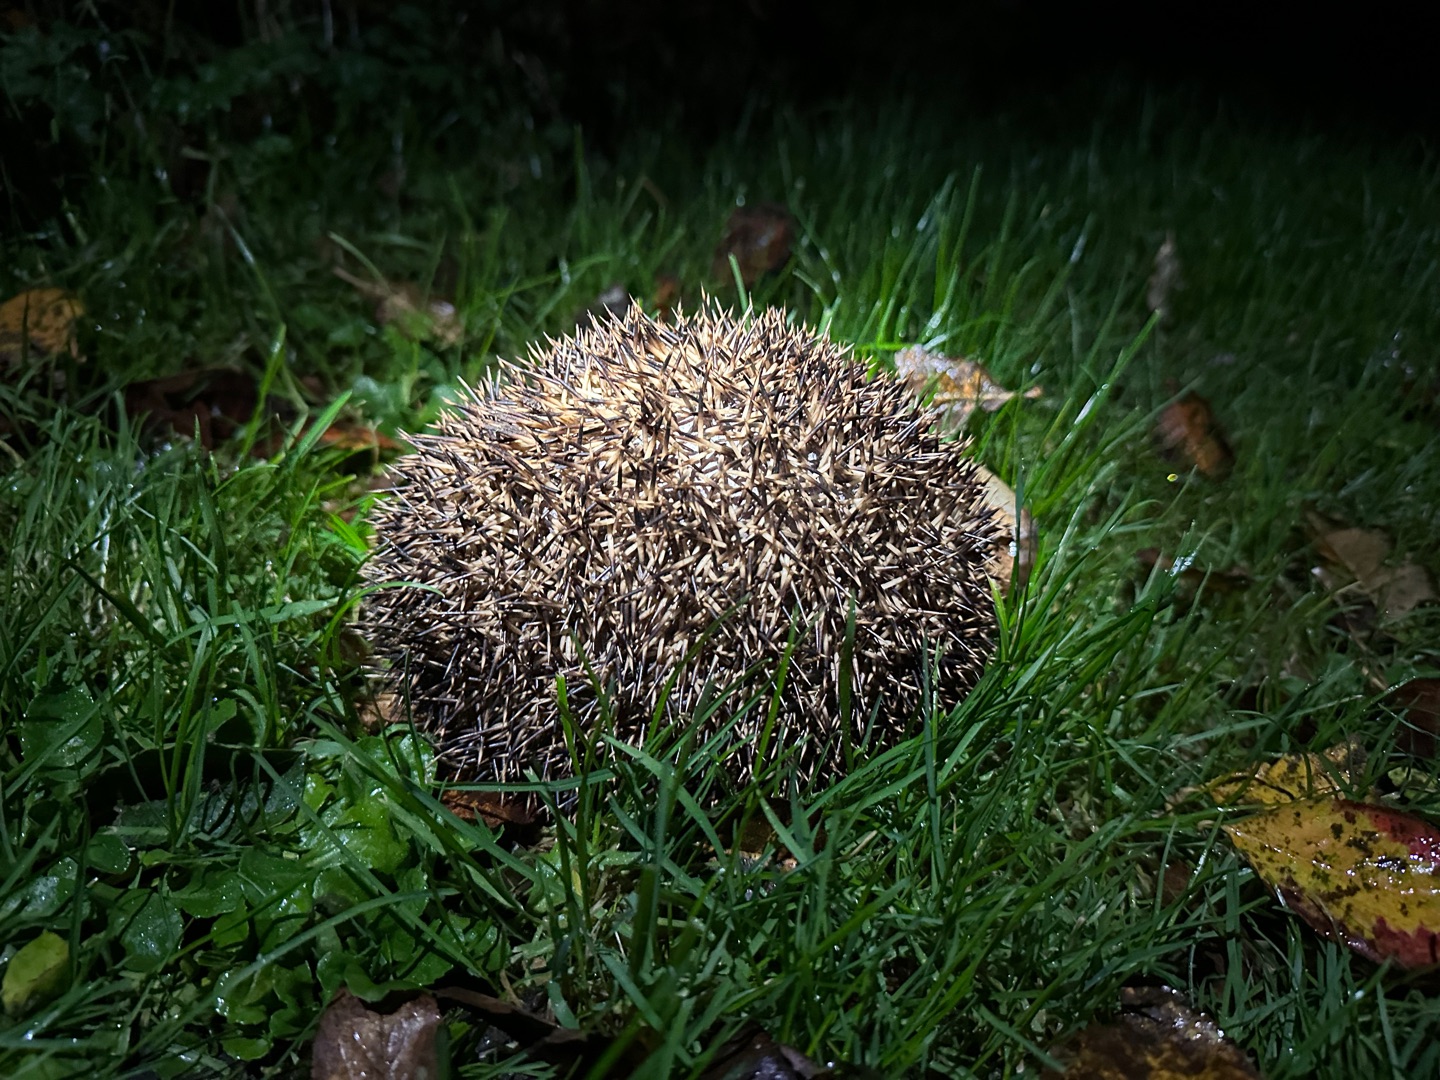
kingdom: Animalia
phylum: Chordata
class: Mammalia
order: Erinaceomorpha
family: Erinaceidae
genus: Erinaceus
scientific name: Erinaceus europaeus
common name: Pindsvin
